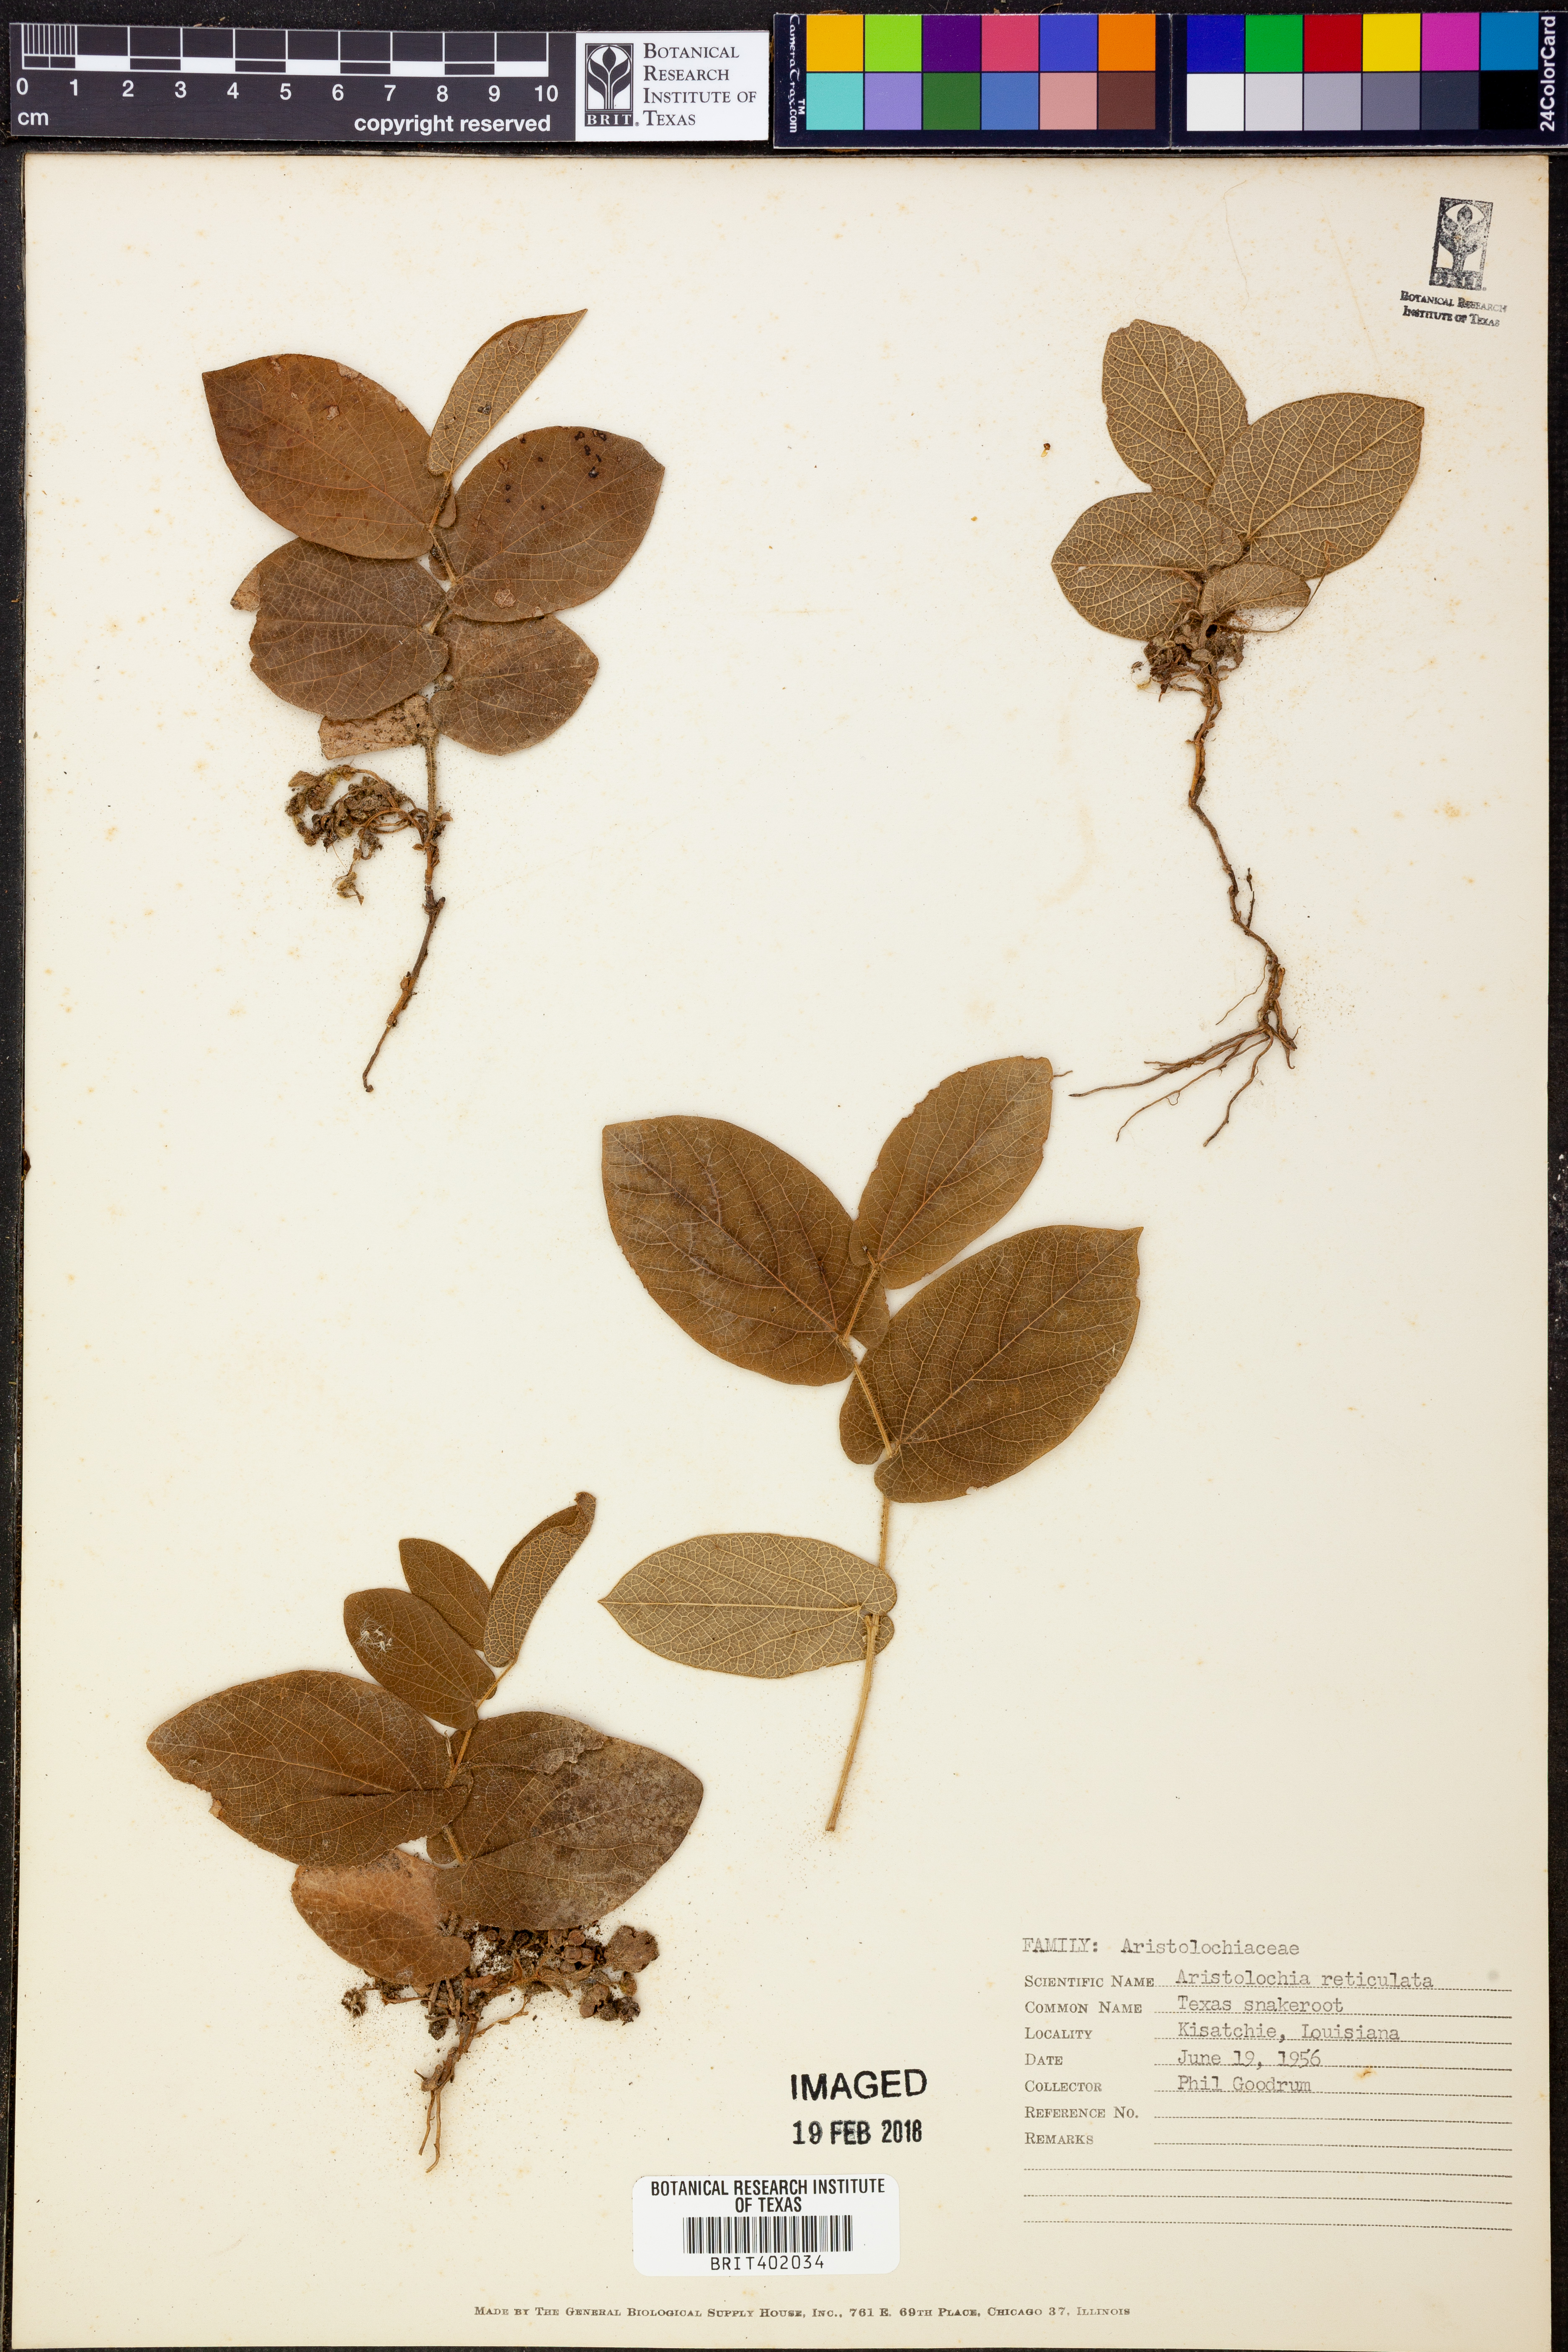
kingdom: Plantae
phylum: Tracheophyta
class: Magnoliopsida
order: Piperales
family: Aristolochiaceae
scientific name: Aristolochiaceae
